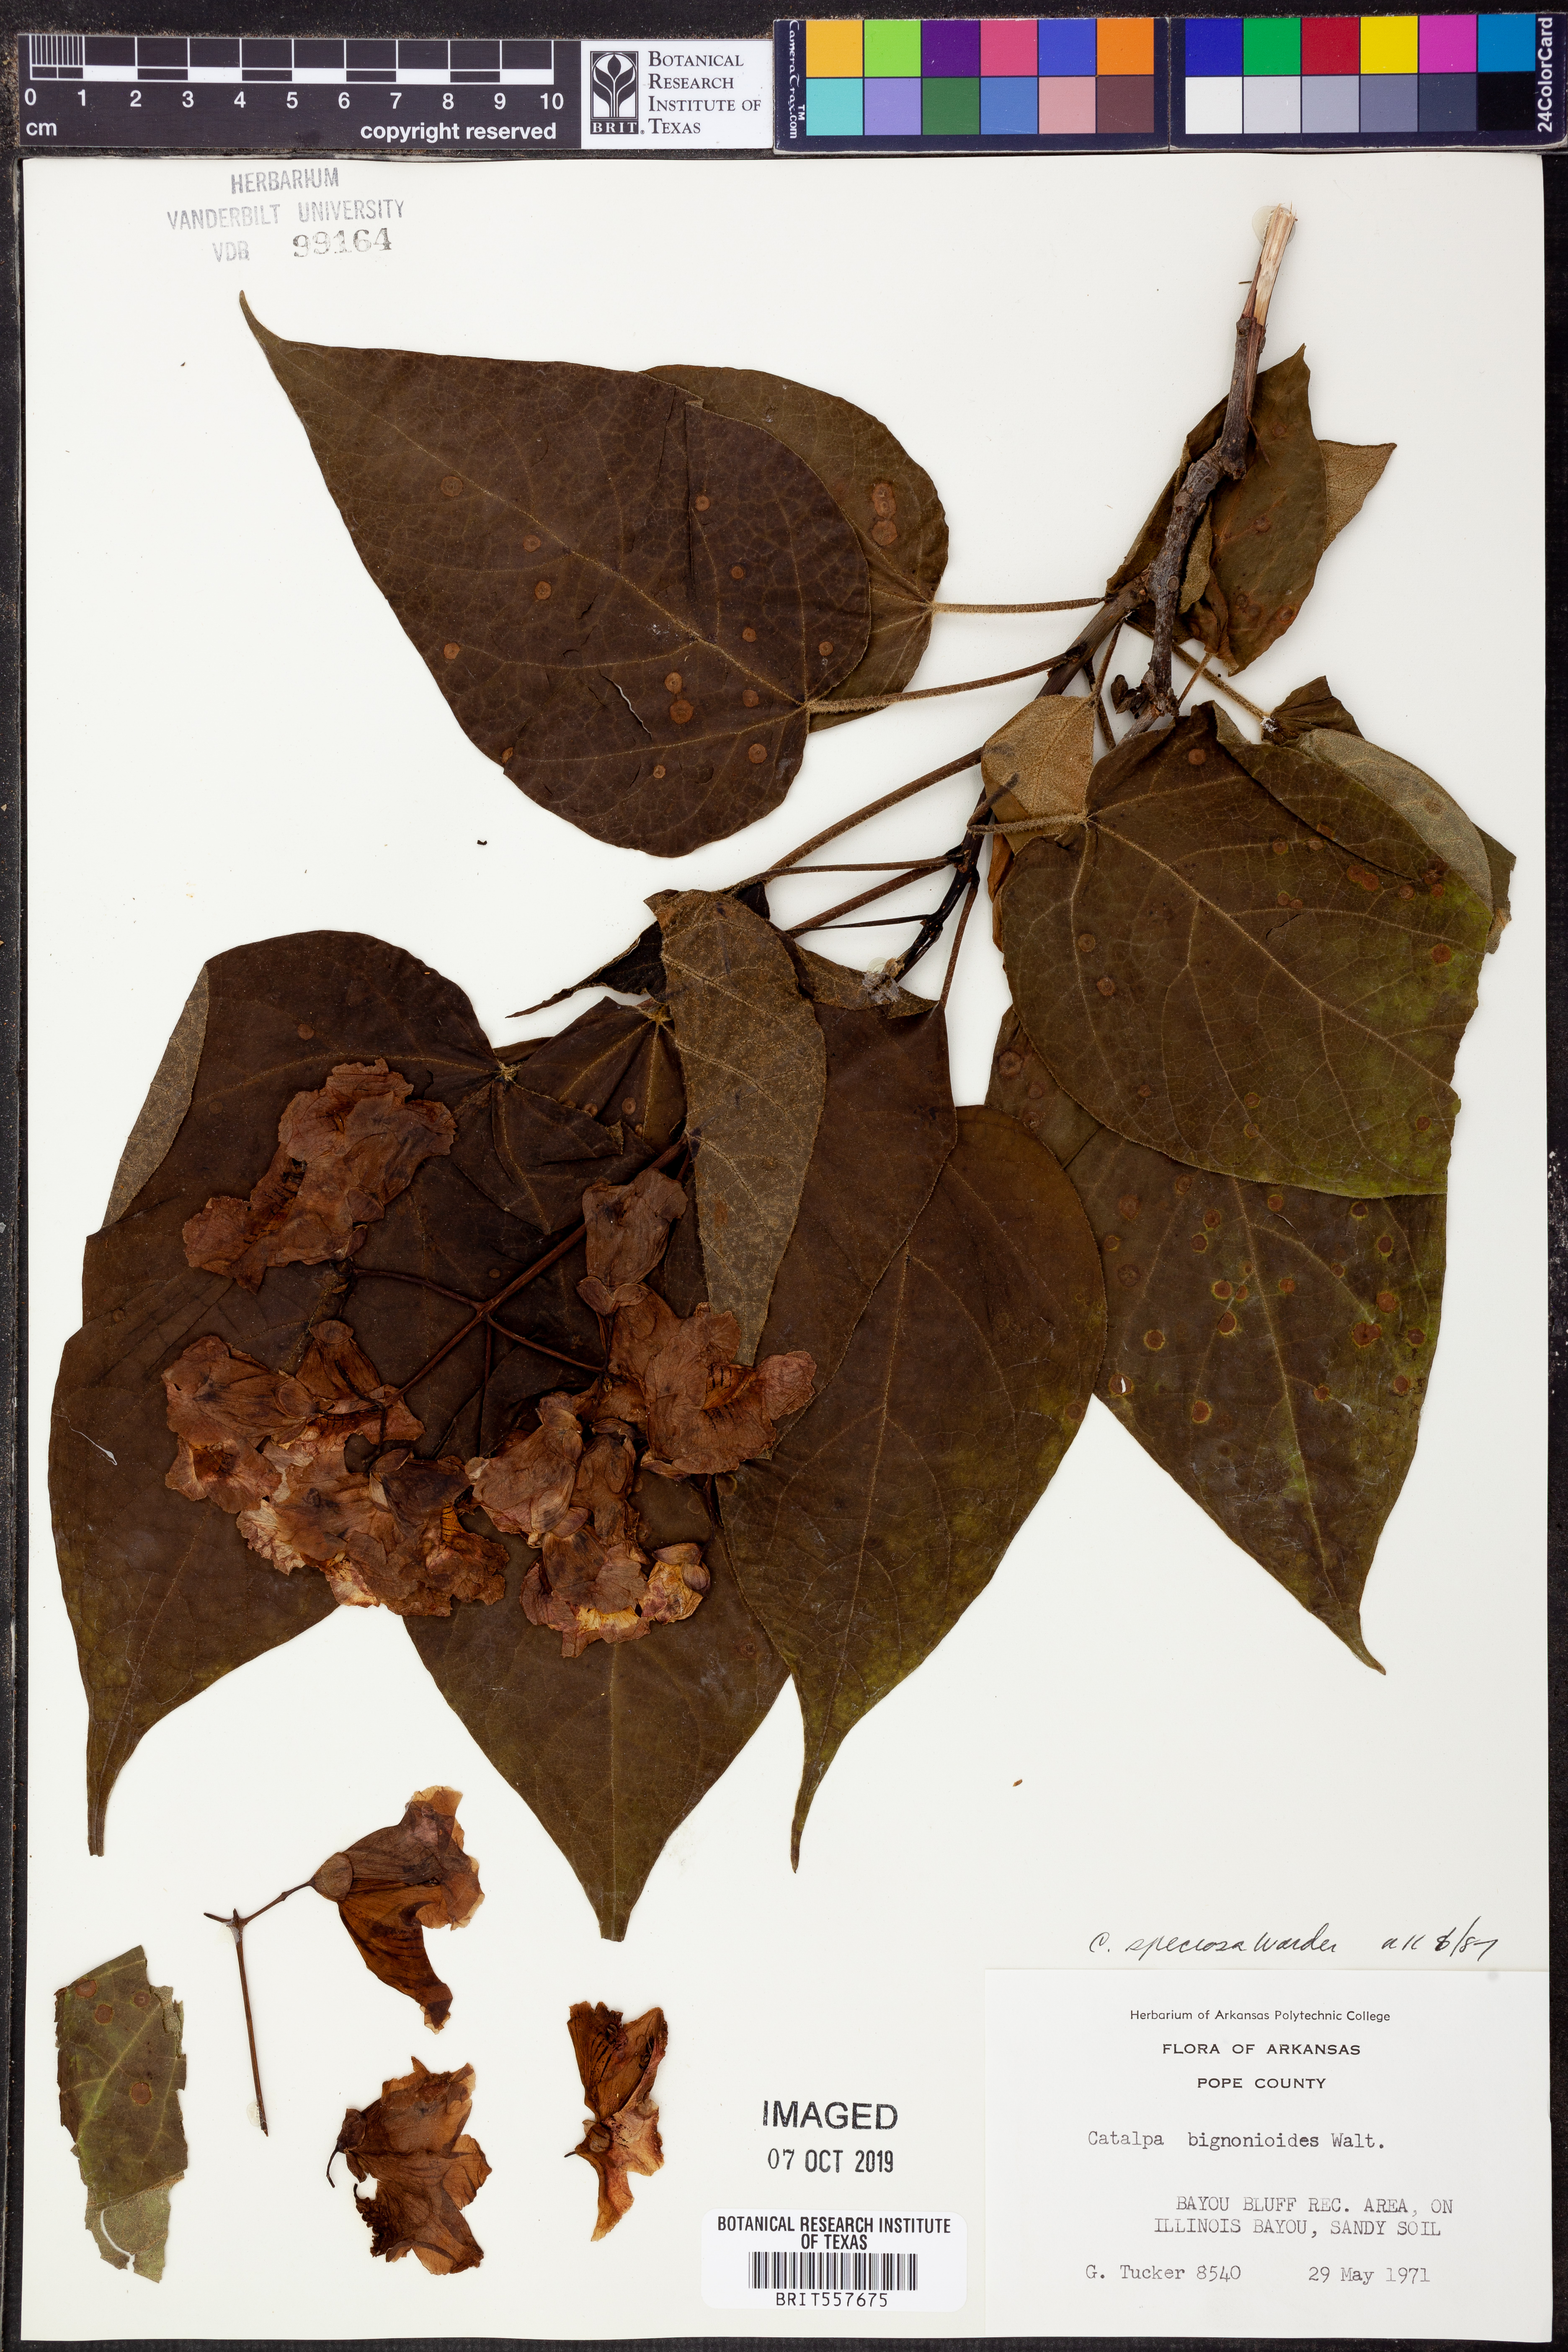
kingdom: Plantae
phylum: Tracheophyta
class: Magnoliopsida
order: Lamiales
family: Bignoniaceae
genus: Catalpa
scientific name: Catalpa speciosa
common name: Northern catalpa
